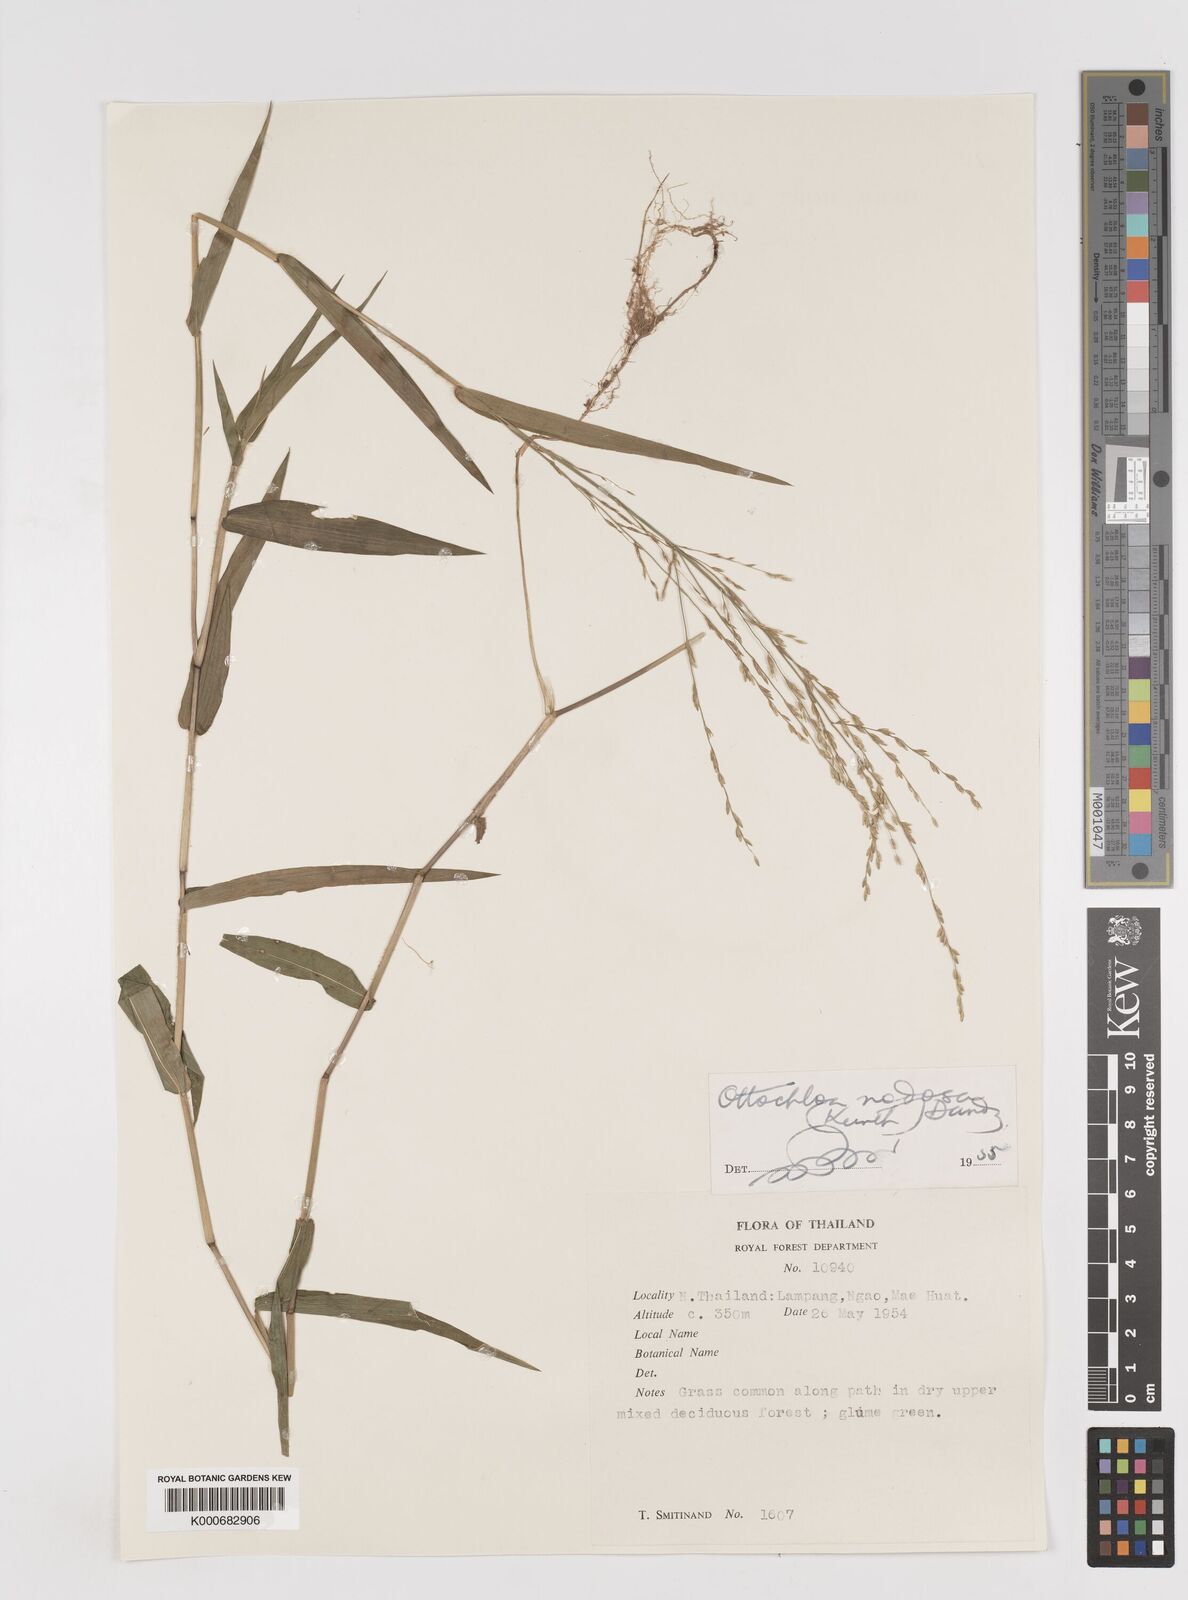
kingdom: Plantae
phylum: Tracheophyta
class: Liliopsida
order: Poales
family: Poaceae
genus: Ottochloa
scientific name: Ottochloa nodosa
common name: Slender-panic grass
